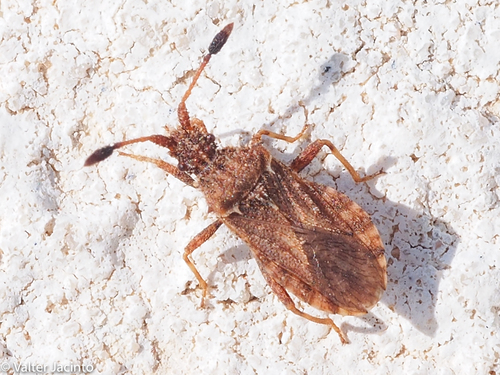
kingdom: Animalia
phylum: Arthropoda
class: Insecta
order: Hemiptera
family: Coreidae
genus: Strobilotoma
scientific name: Strobilotoma typhaecornis
